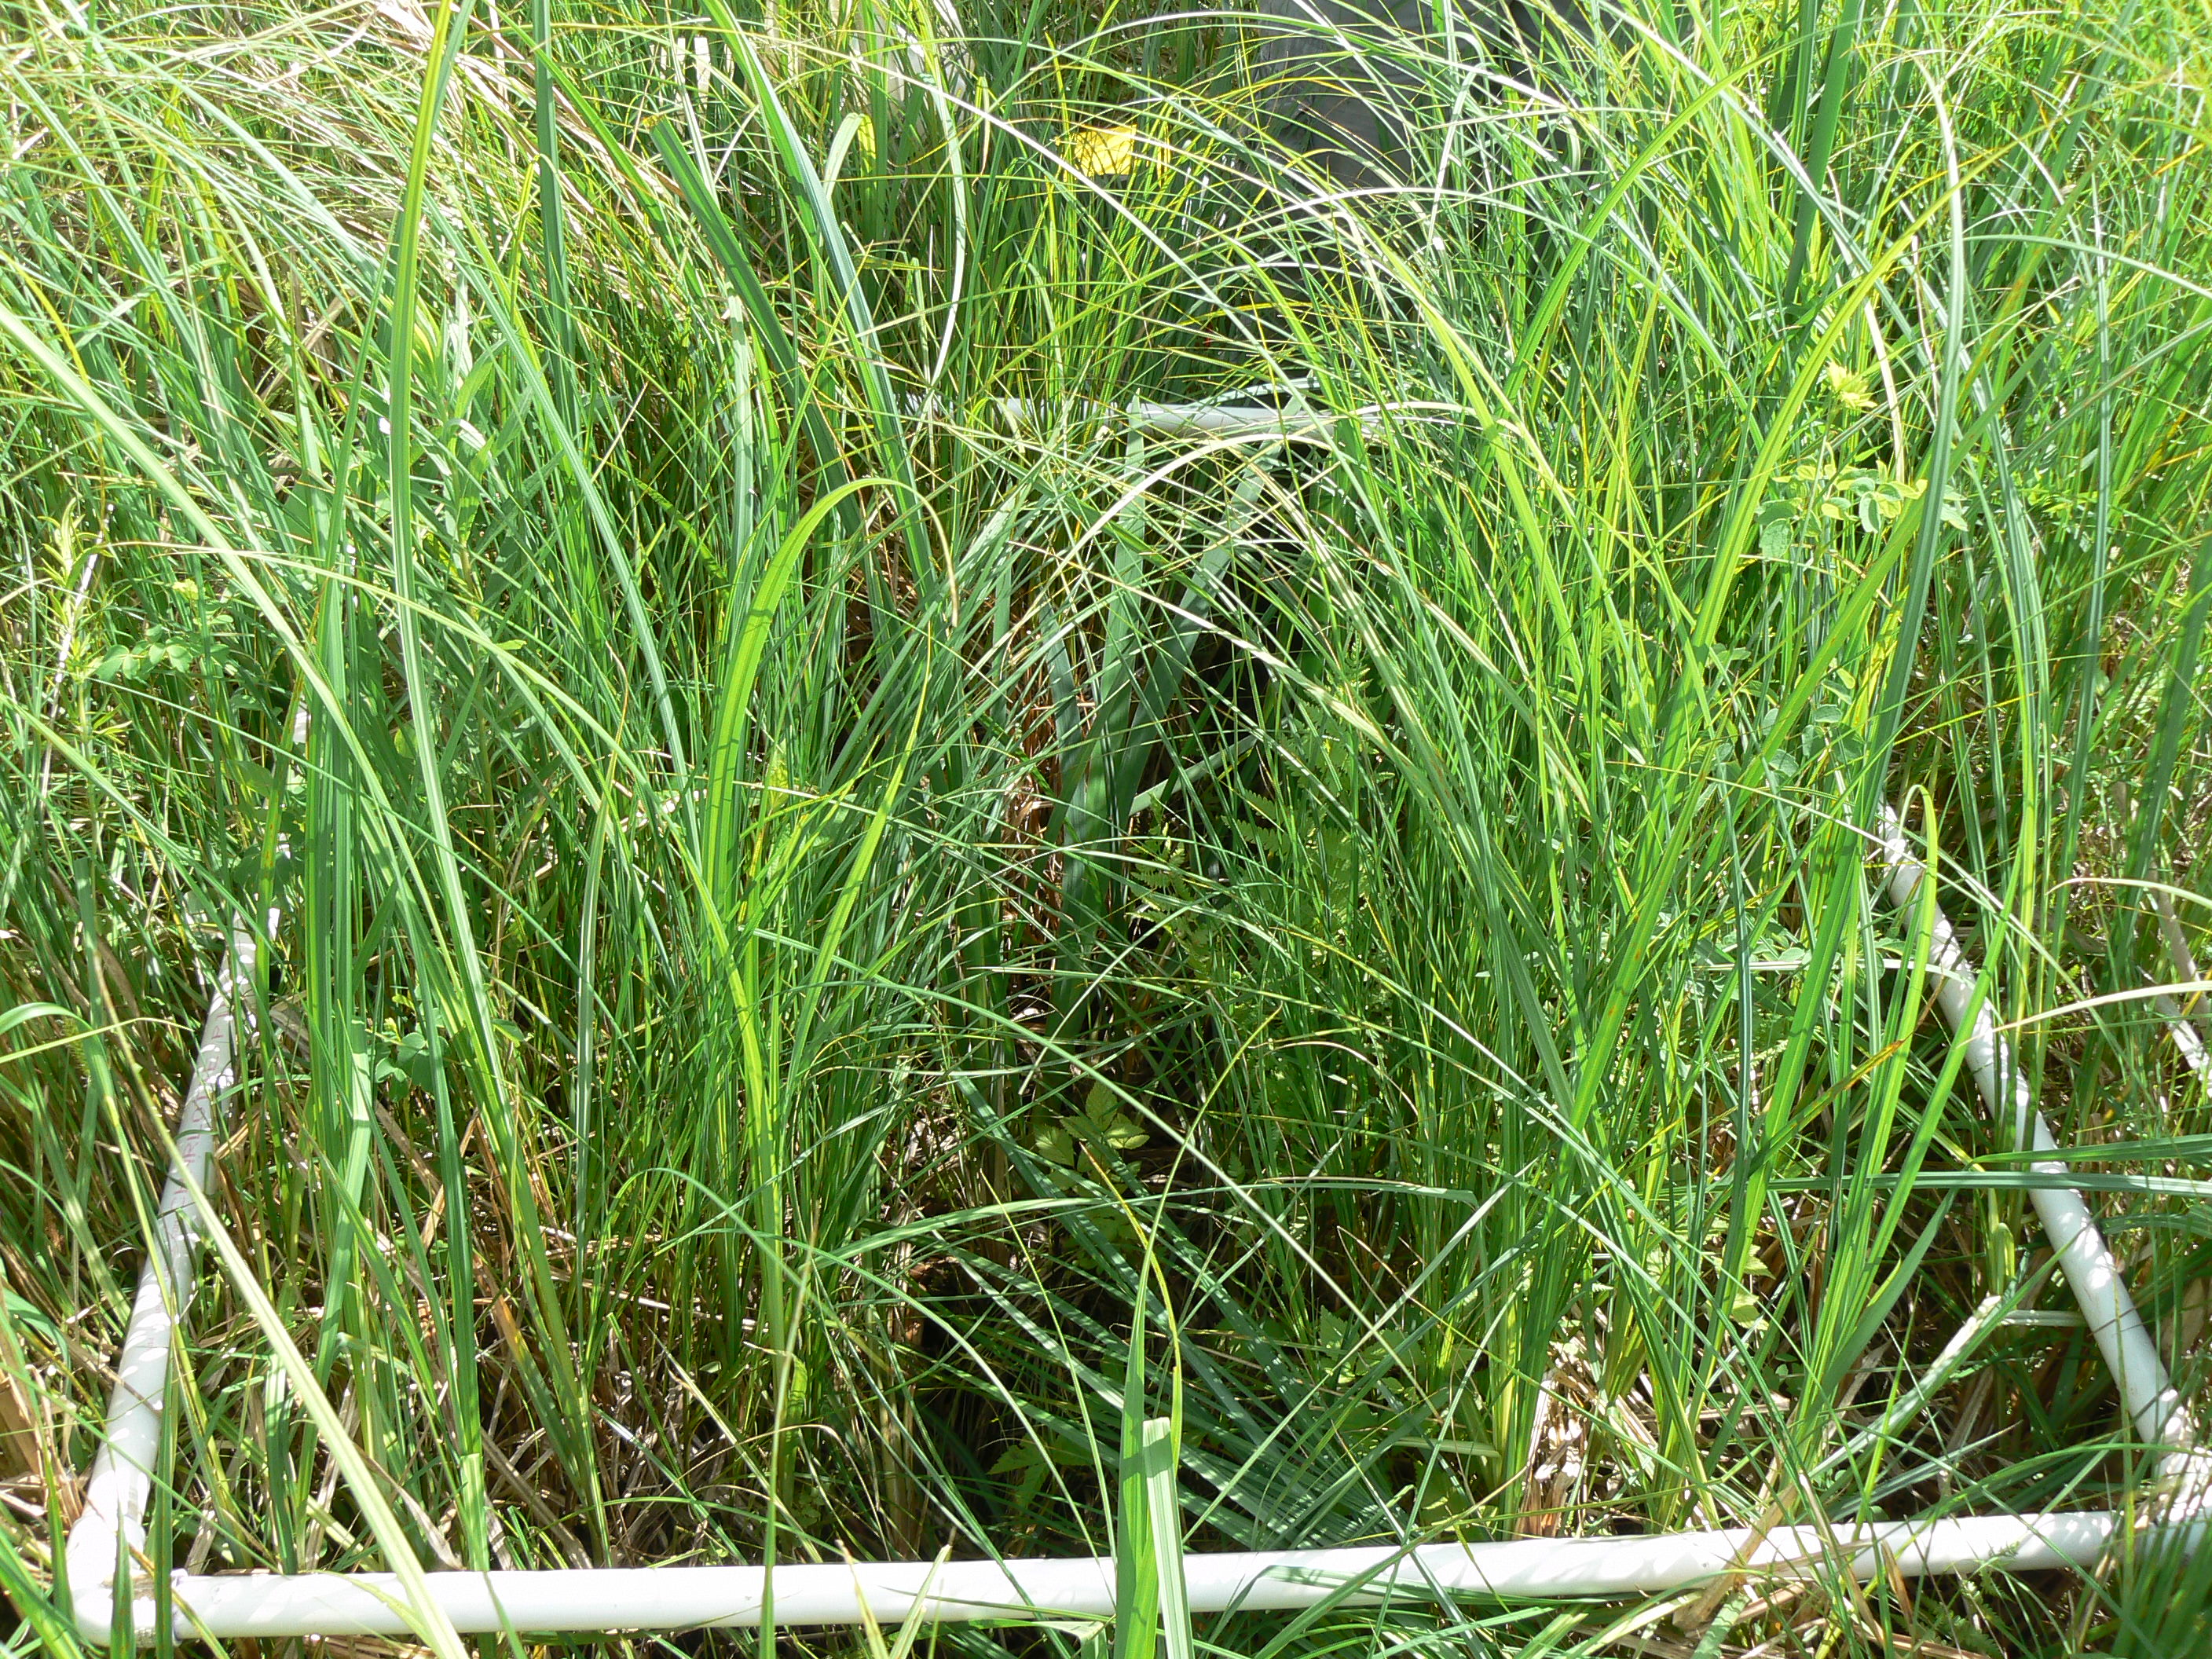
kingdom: Plantae
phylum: Tracheophyta
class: Magnoliopsida
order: Ranunculales
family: Ranunculaceae
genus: Thalictrum
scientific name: Thalictrum dasycarpum
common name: Purple meadow-rue
